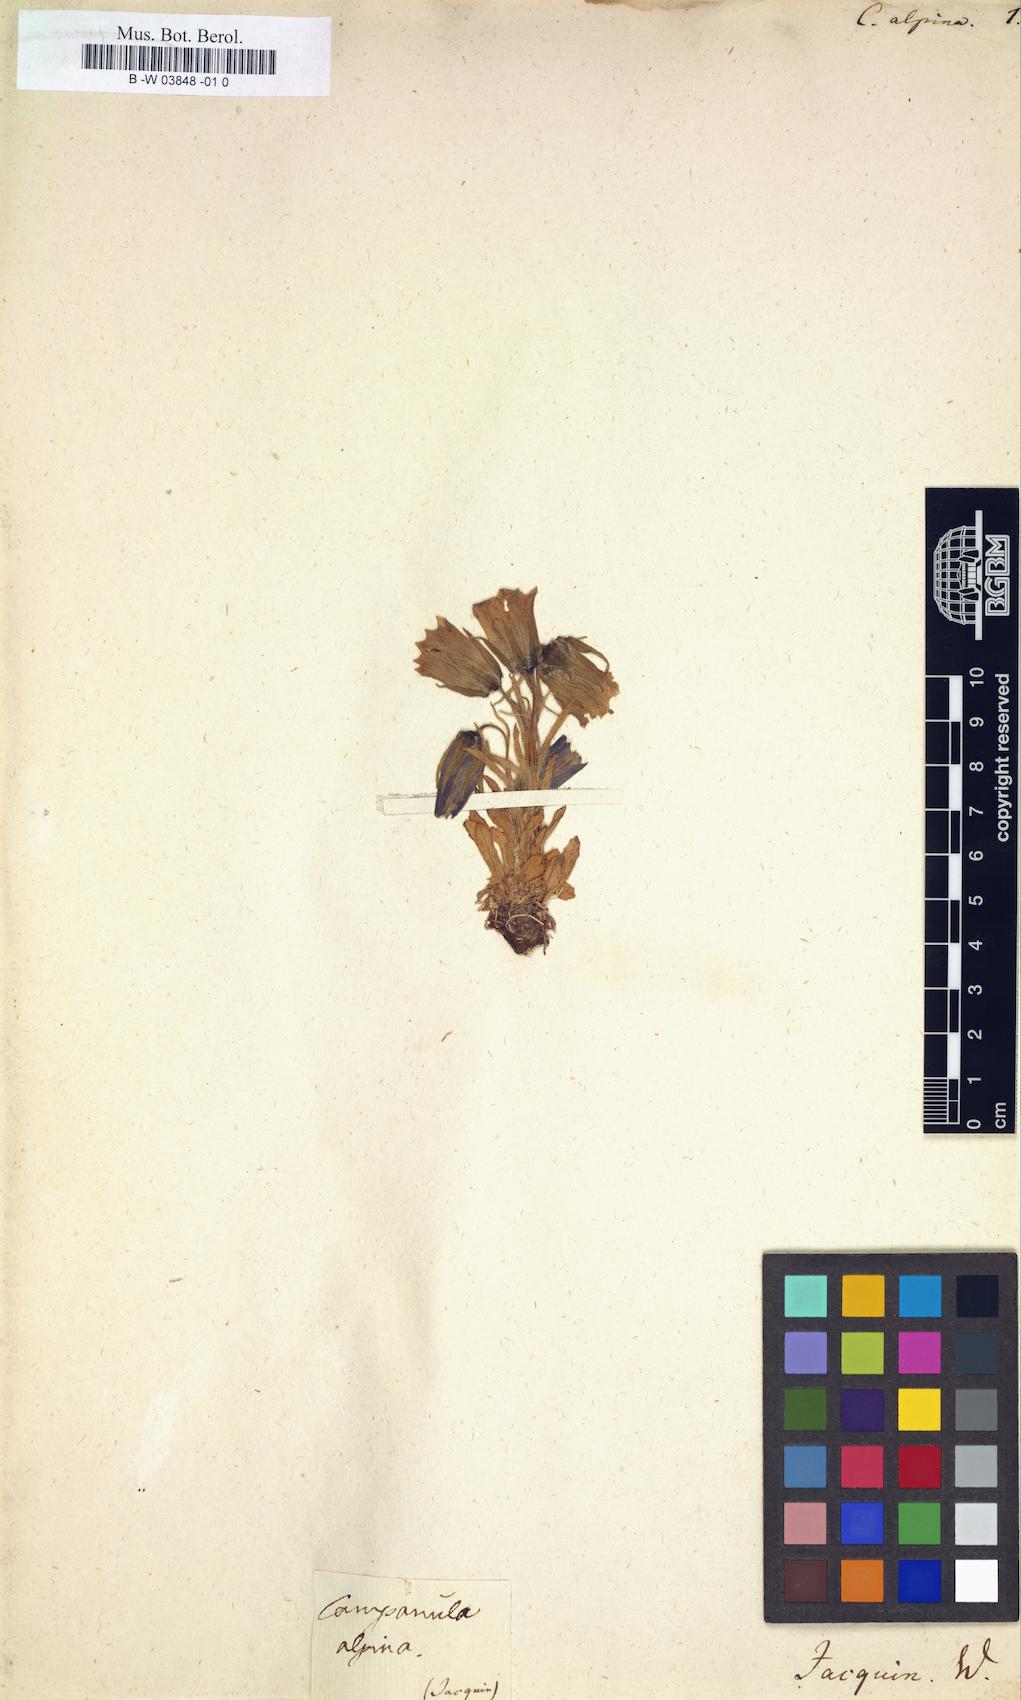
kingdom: Plantae
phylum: Tracheophyta
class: Magnoliopsida
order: Asterales
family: Campanulaceae
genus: Campanula
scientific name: Campanula alpina
